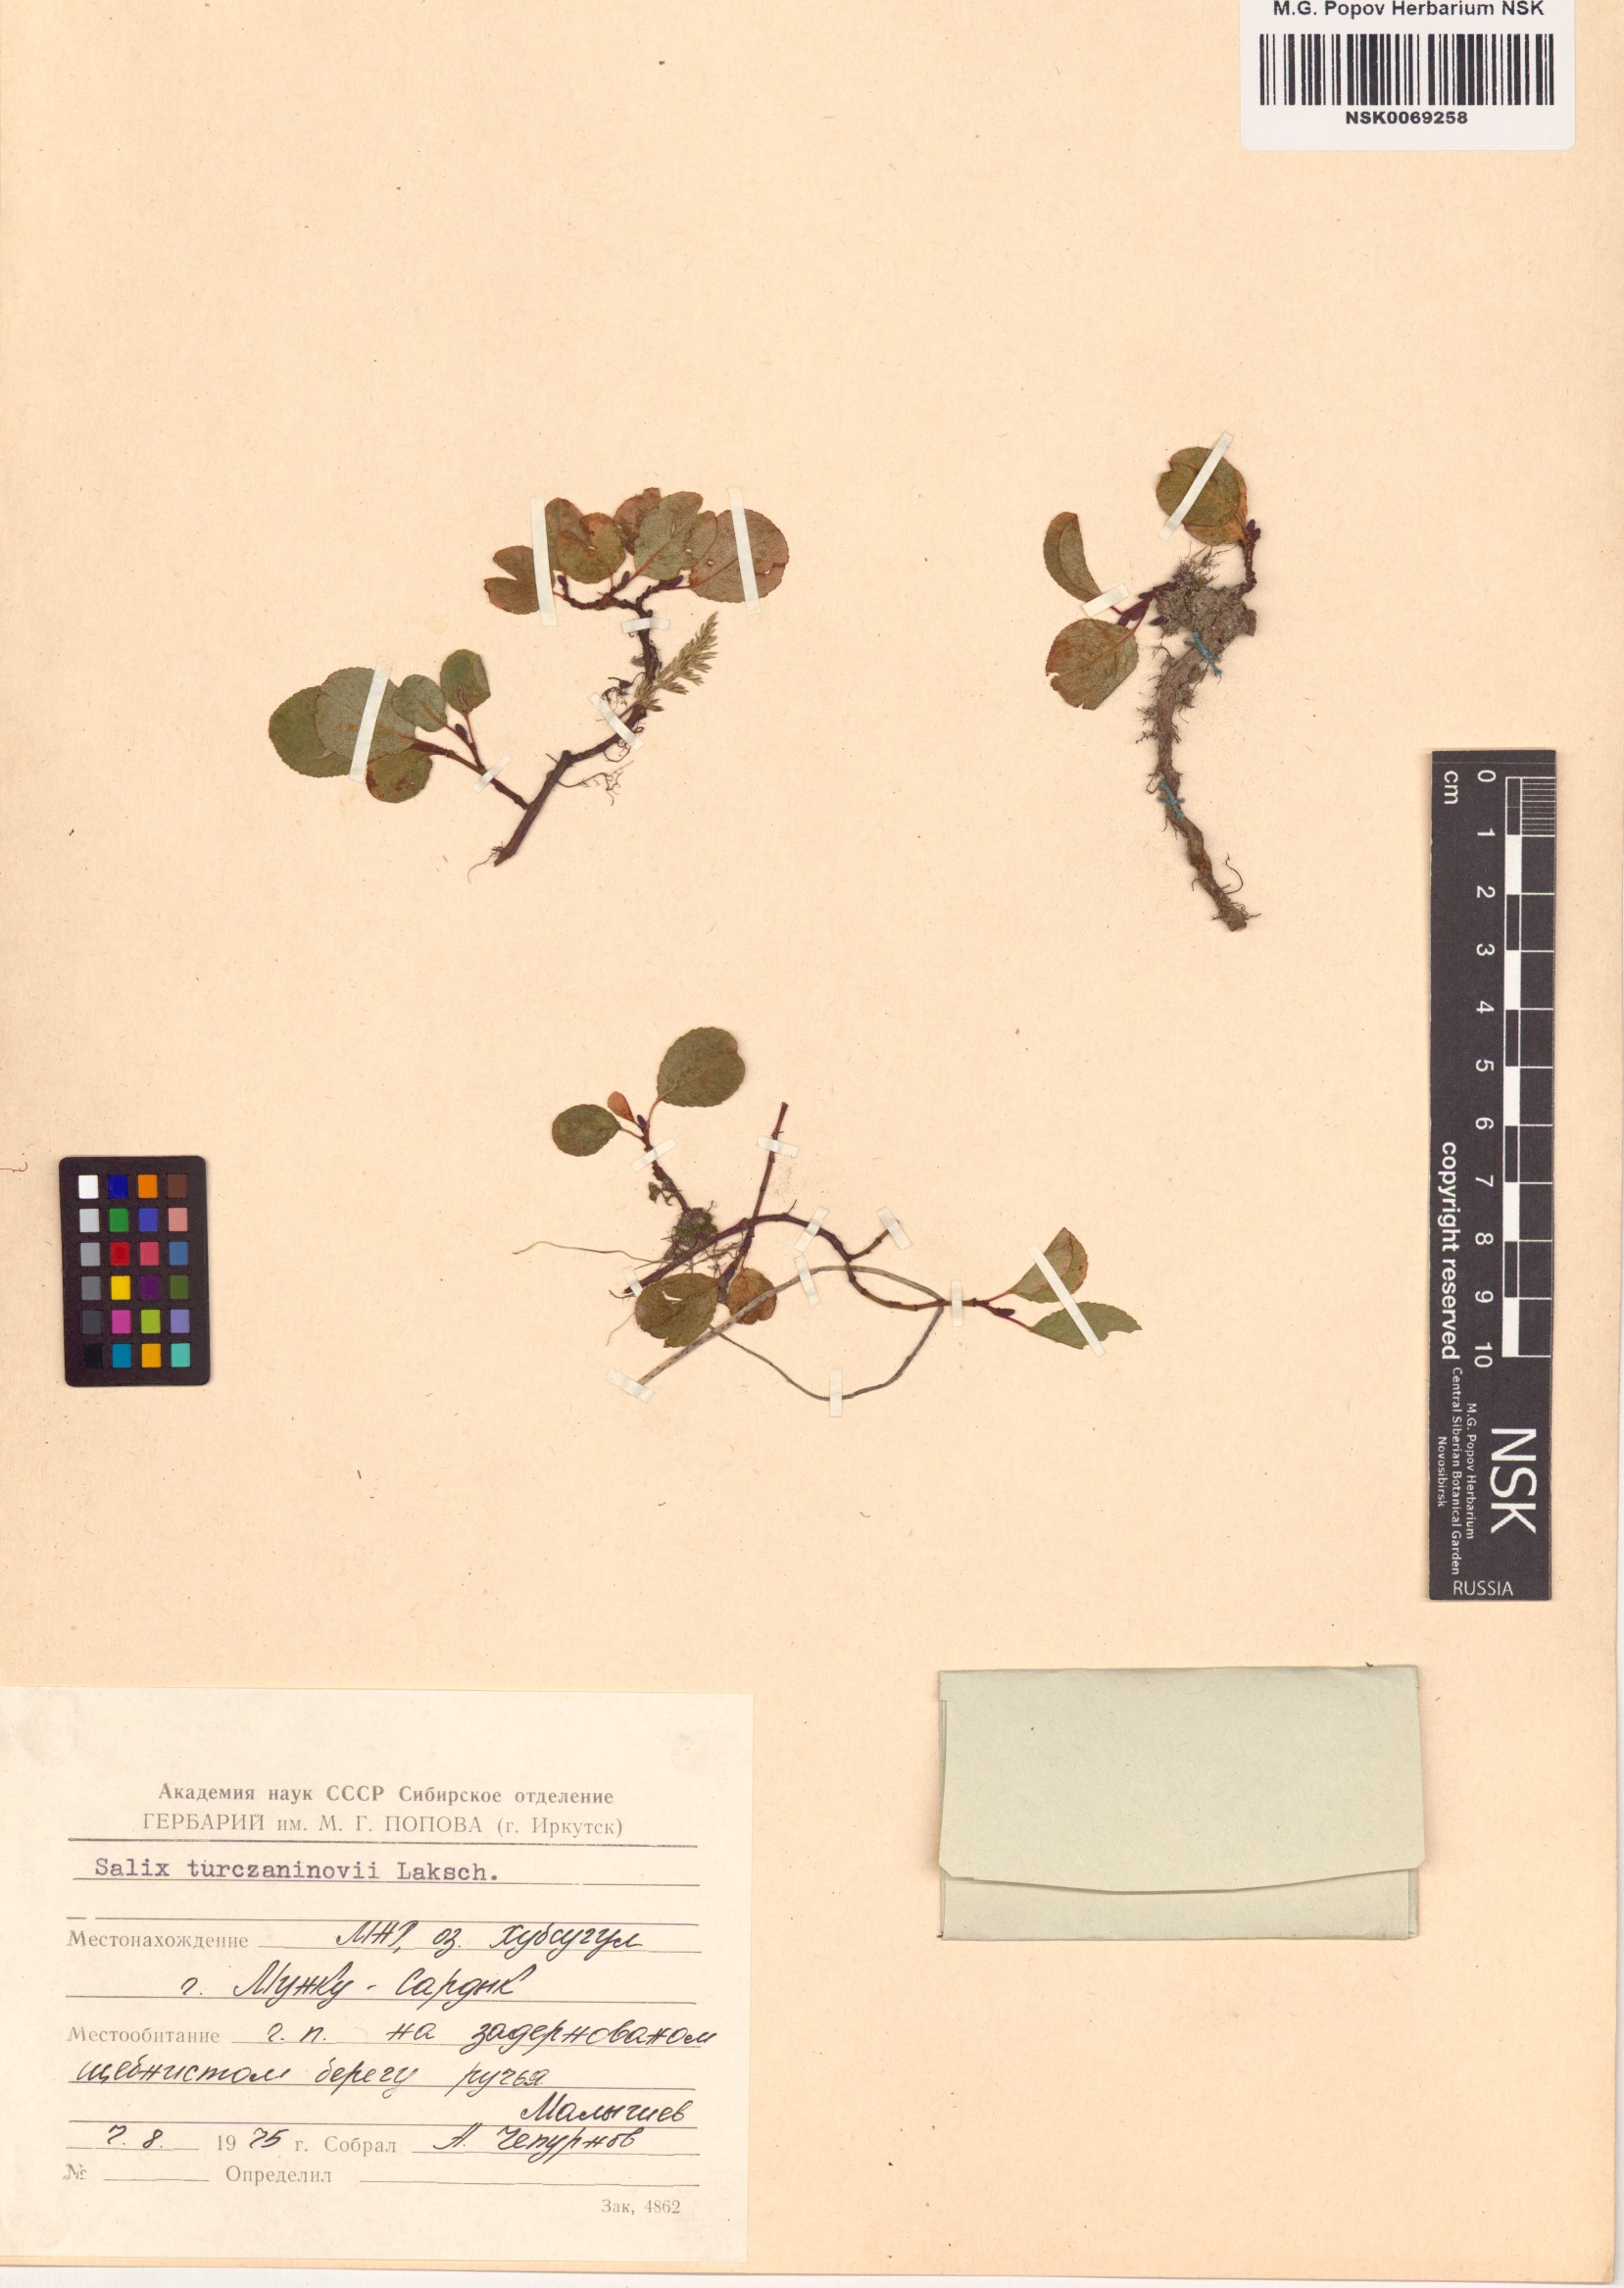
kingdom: Plantae
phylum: Tracheophyta
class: Magnoliopsida
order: Malpighiales
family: Salicaceae
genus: Salix
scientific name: Salix turczaninowii
